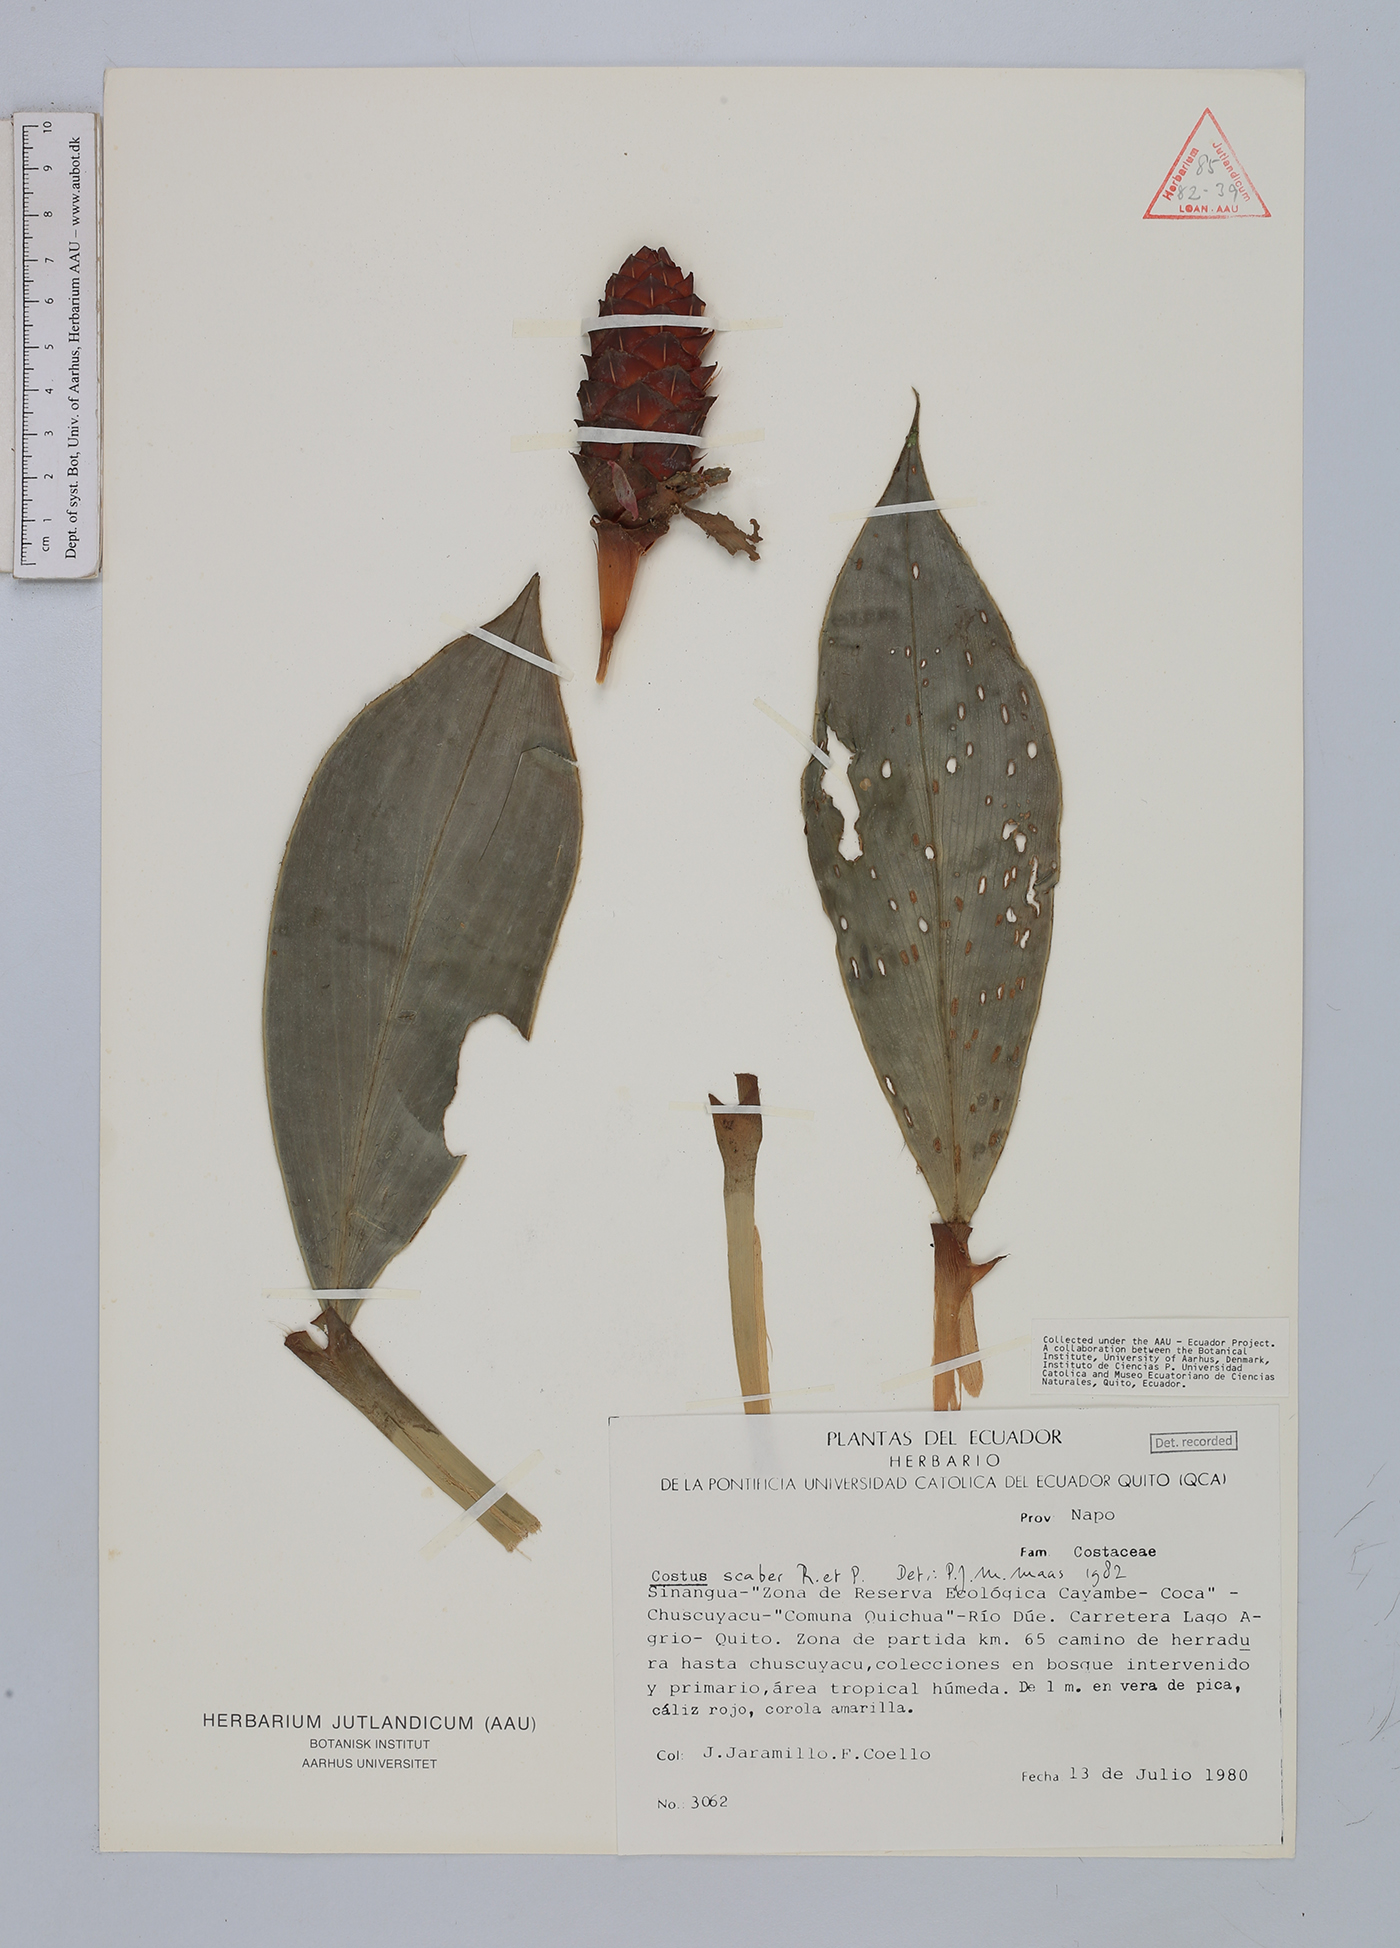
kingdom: Plantae
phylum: Tracheophyta
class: Liliopsida
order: Zingiberales
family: Costaceae
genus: Costus
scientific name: Costus scaber
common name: Spiral head ginger
